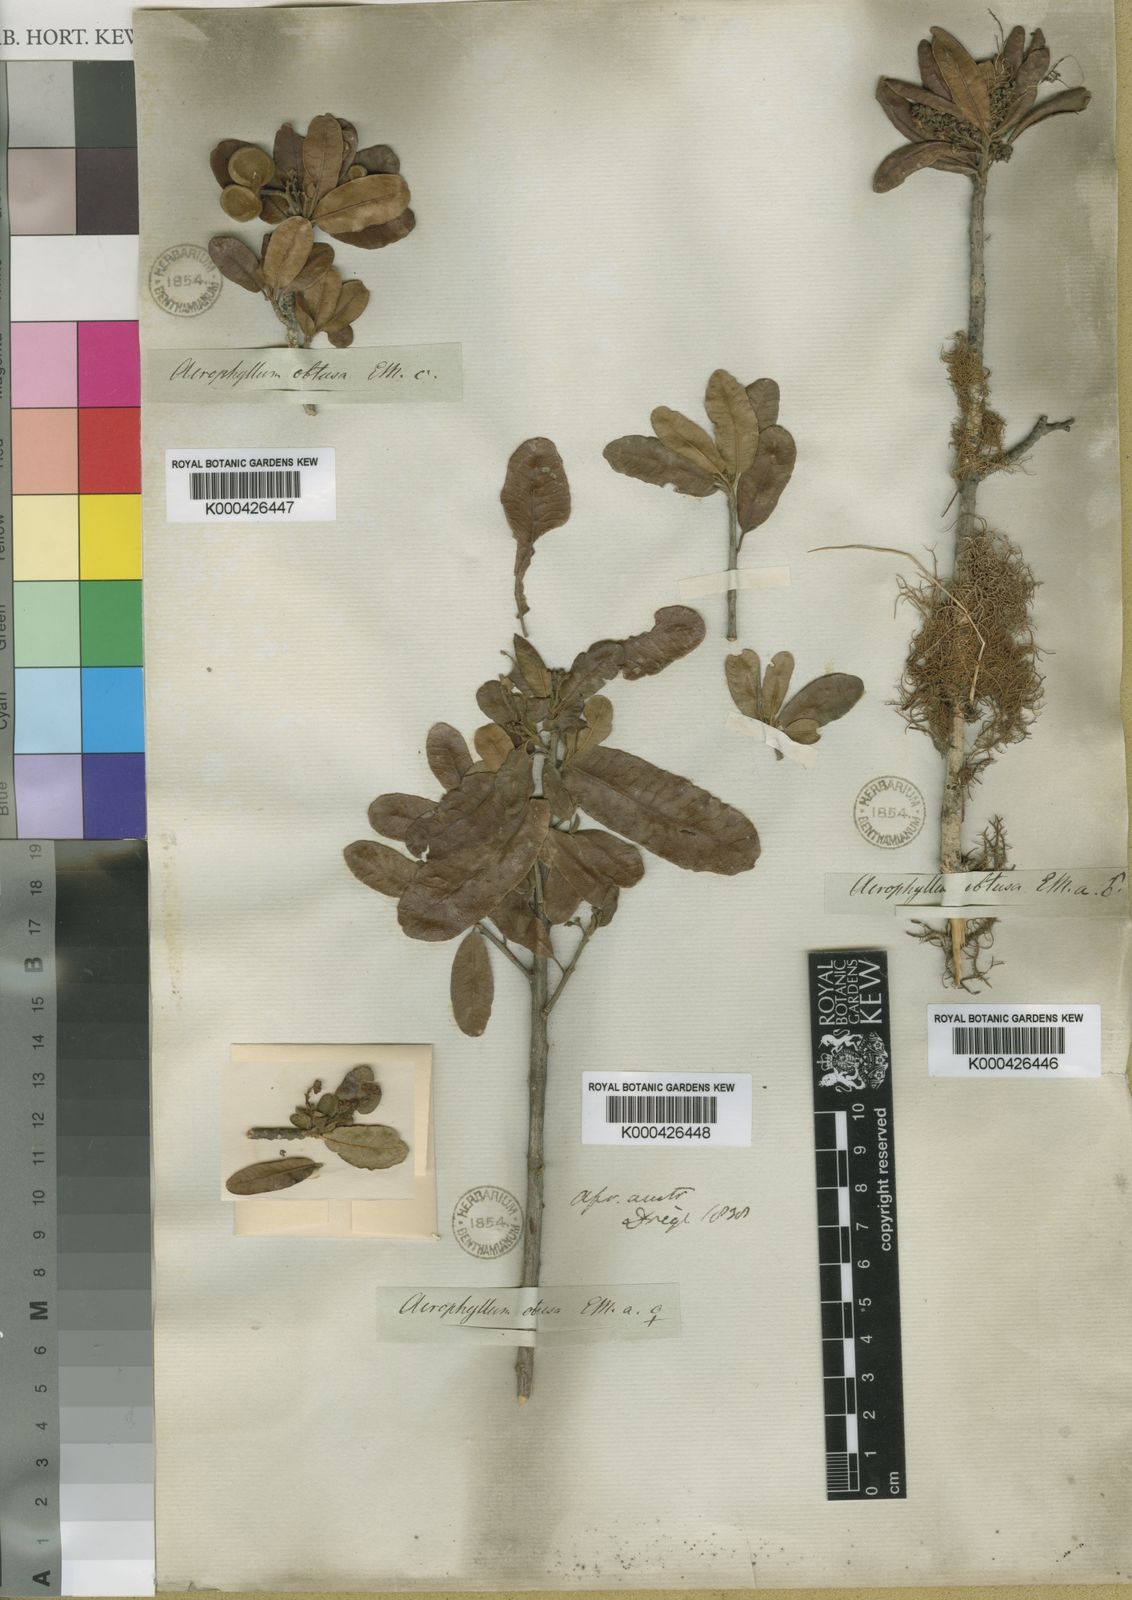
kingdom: Plantae
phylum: Tracheophyta
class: Magnoliopsida
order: Sapindales
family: Sapindaceae
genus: Pappea
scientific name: Pappea capensis
